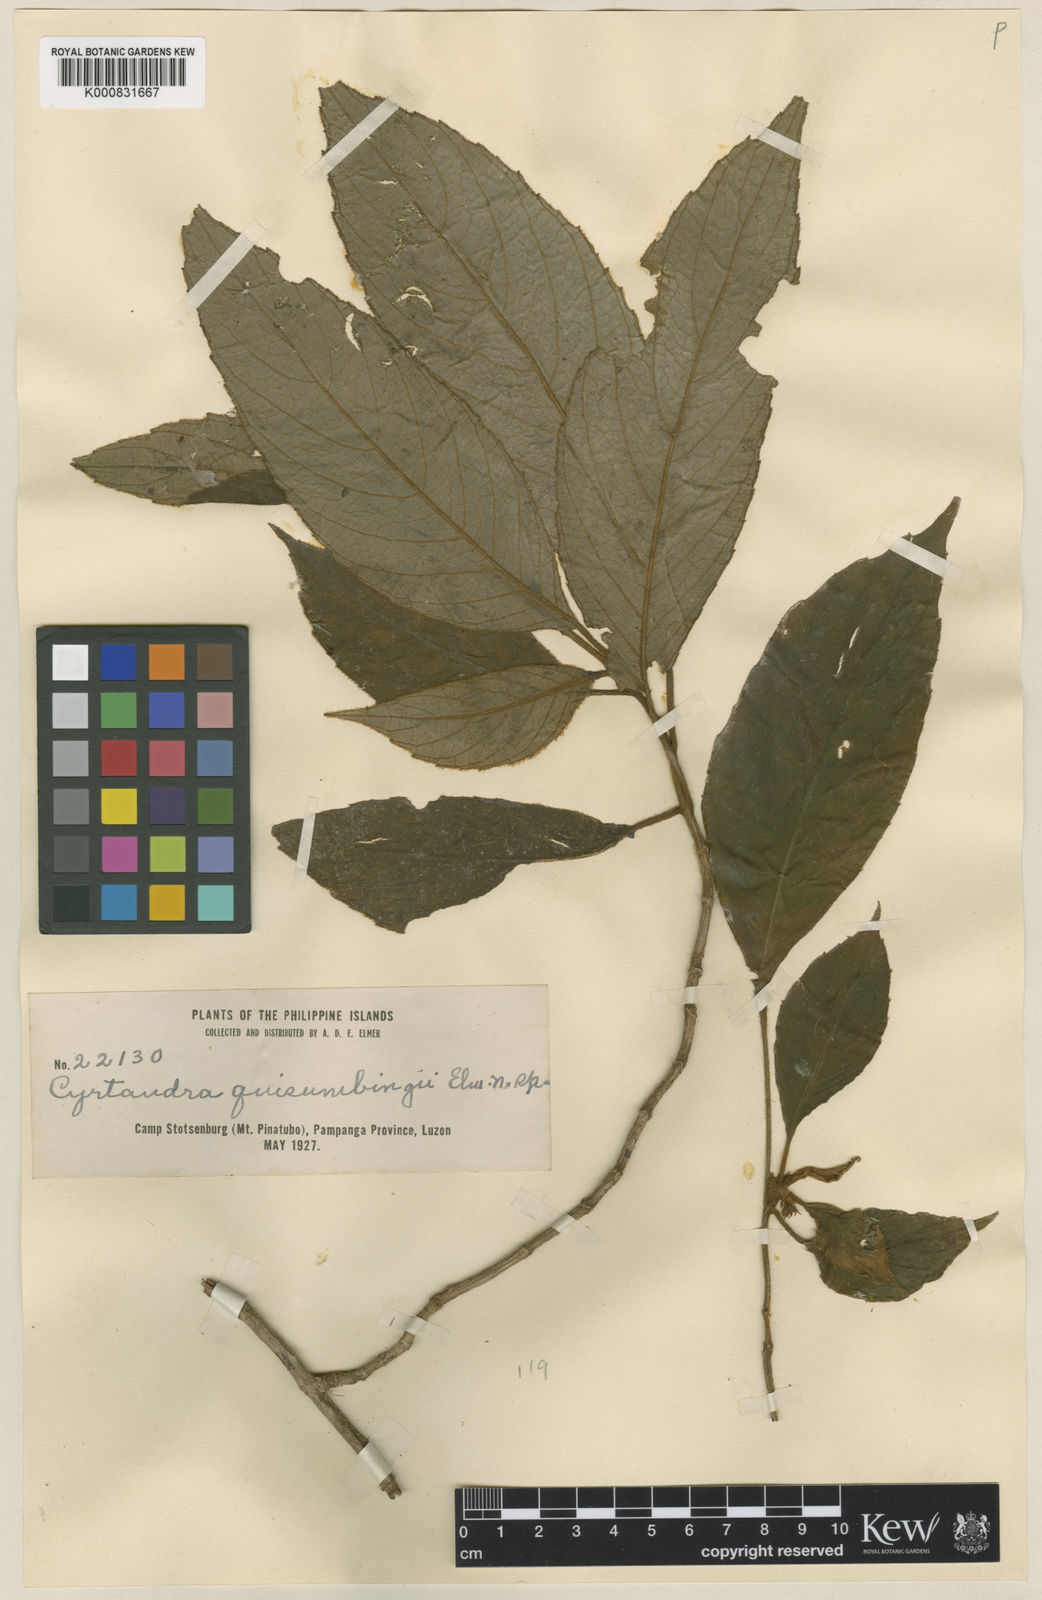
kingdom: Plantae
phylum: Tracheophyta
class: Magnoliopsida
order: Lamiales
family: Gesneriaceae
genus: Cyrtandra
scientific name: Cyrtandra quisumbingii
